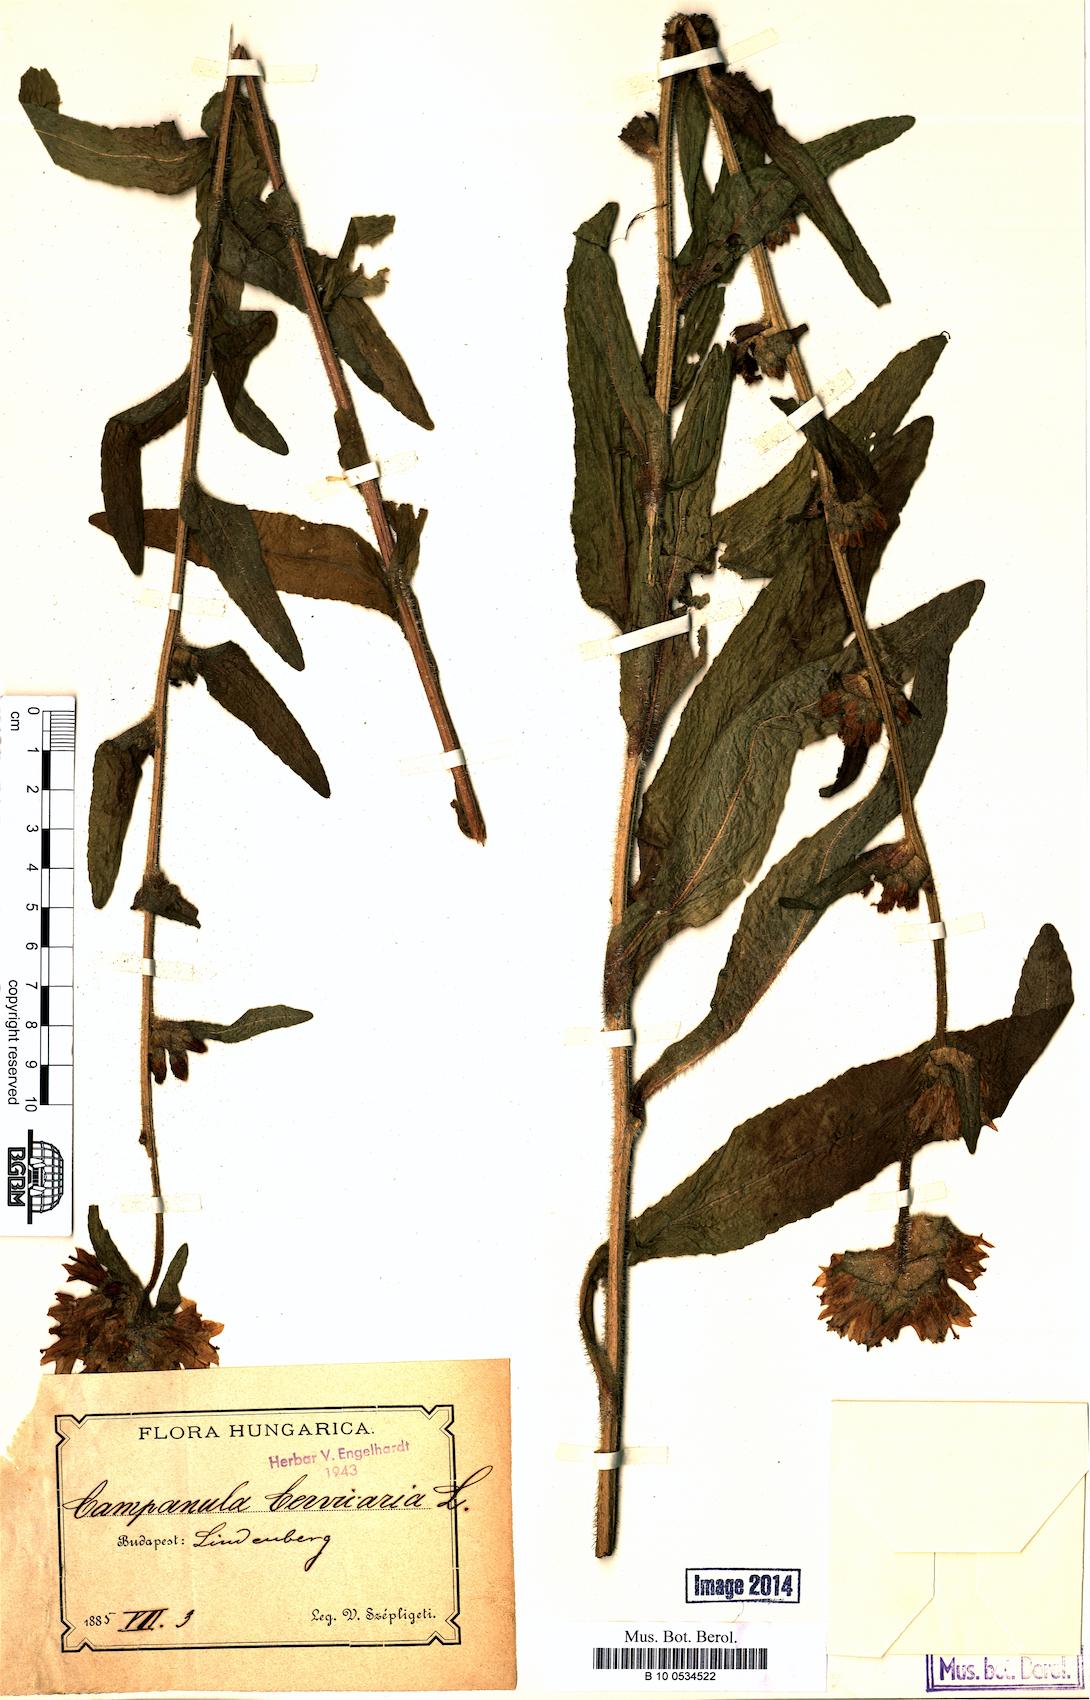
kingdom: Plantae
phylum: Tracheophyta
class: Magnoliopsida
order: Asterales
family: Campanulaceae
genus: Campanula
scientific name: Campanula cervicaria
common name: Bristly bellflower
